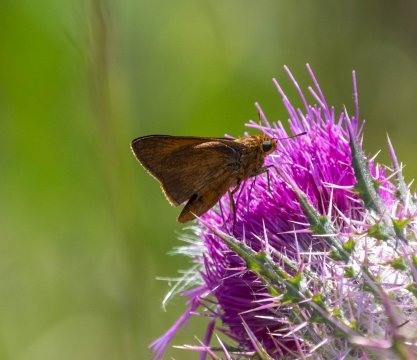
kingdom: Animalia
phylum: Arthropoda
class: Insecta
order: Lepidoptera
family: Hesperiidae
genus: Euphyes
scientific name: Euphyes pilatka
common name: Palatka Skipper
